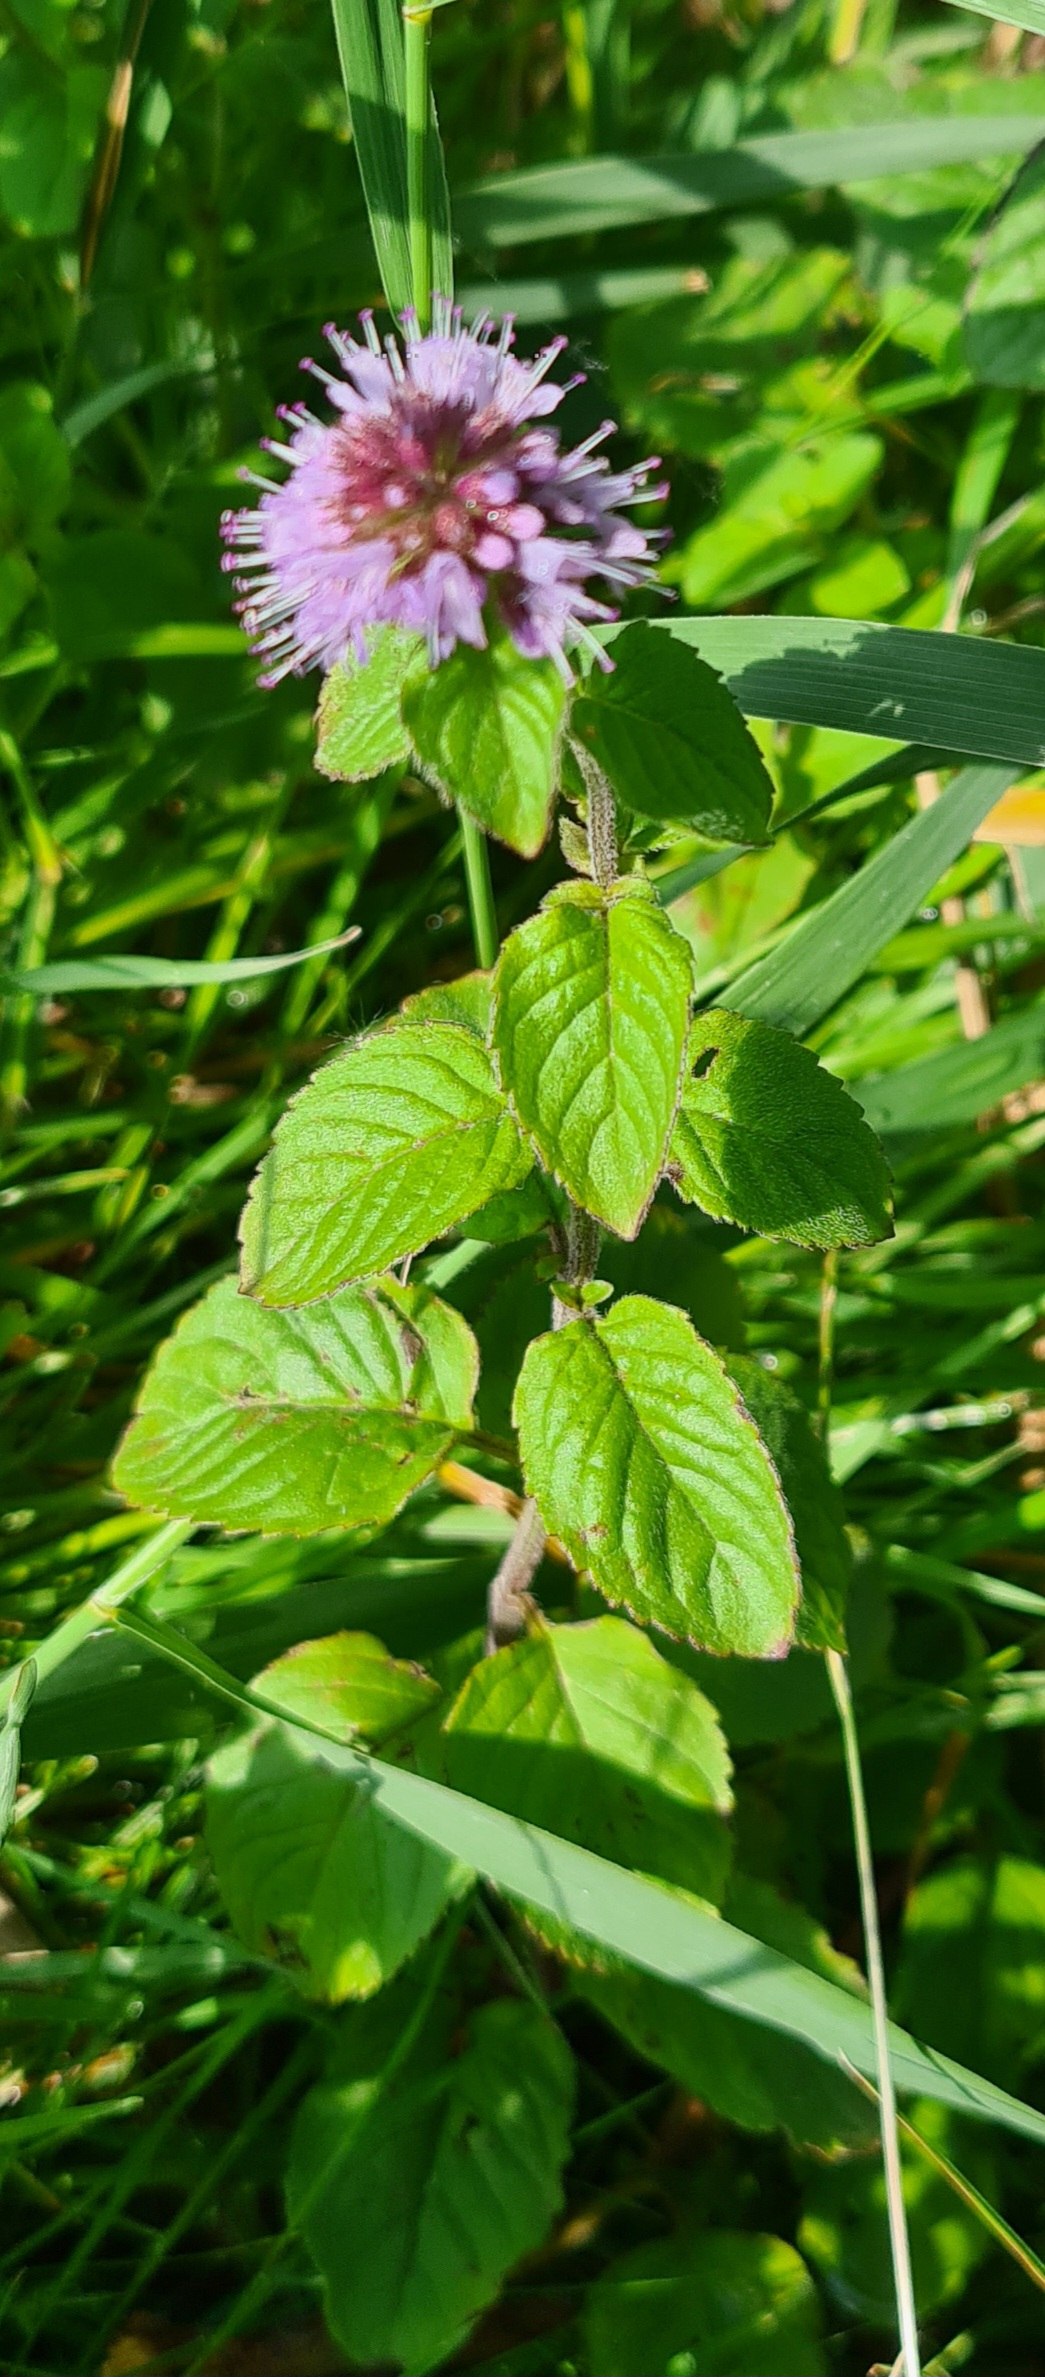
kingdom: Plantae
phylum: Tracheophyta
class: Magnoliopsida
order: Lamiales
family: Lamiaceae
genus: Mentha
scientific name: Mentha aquatica
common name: Vand-mynte
